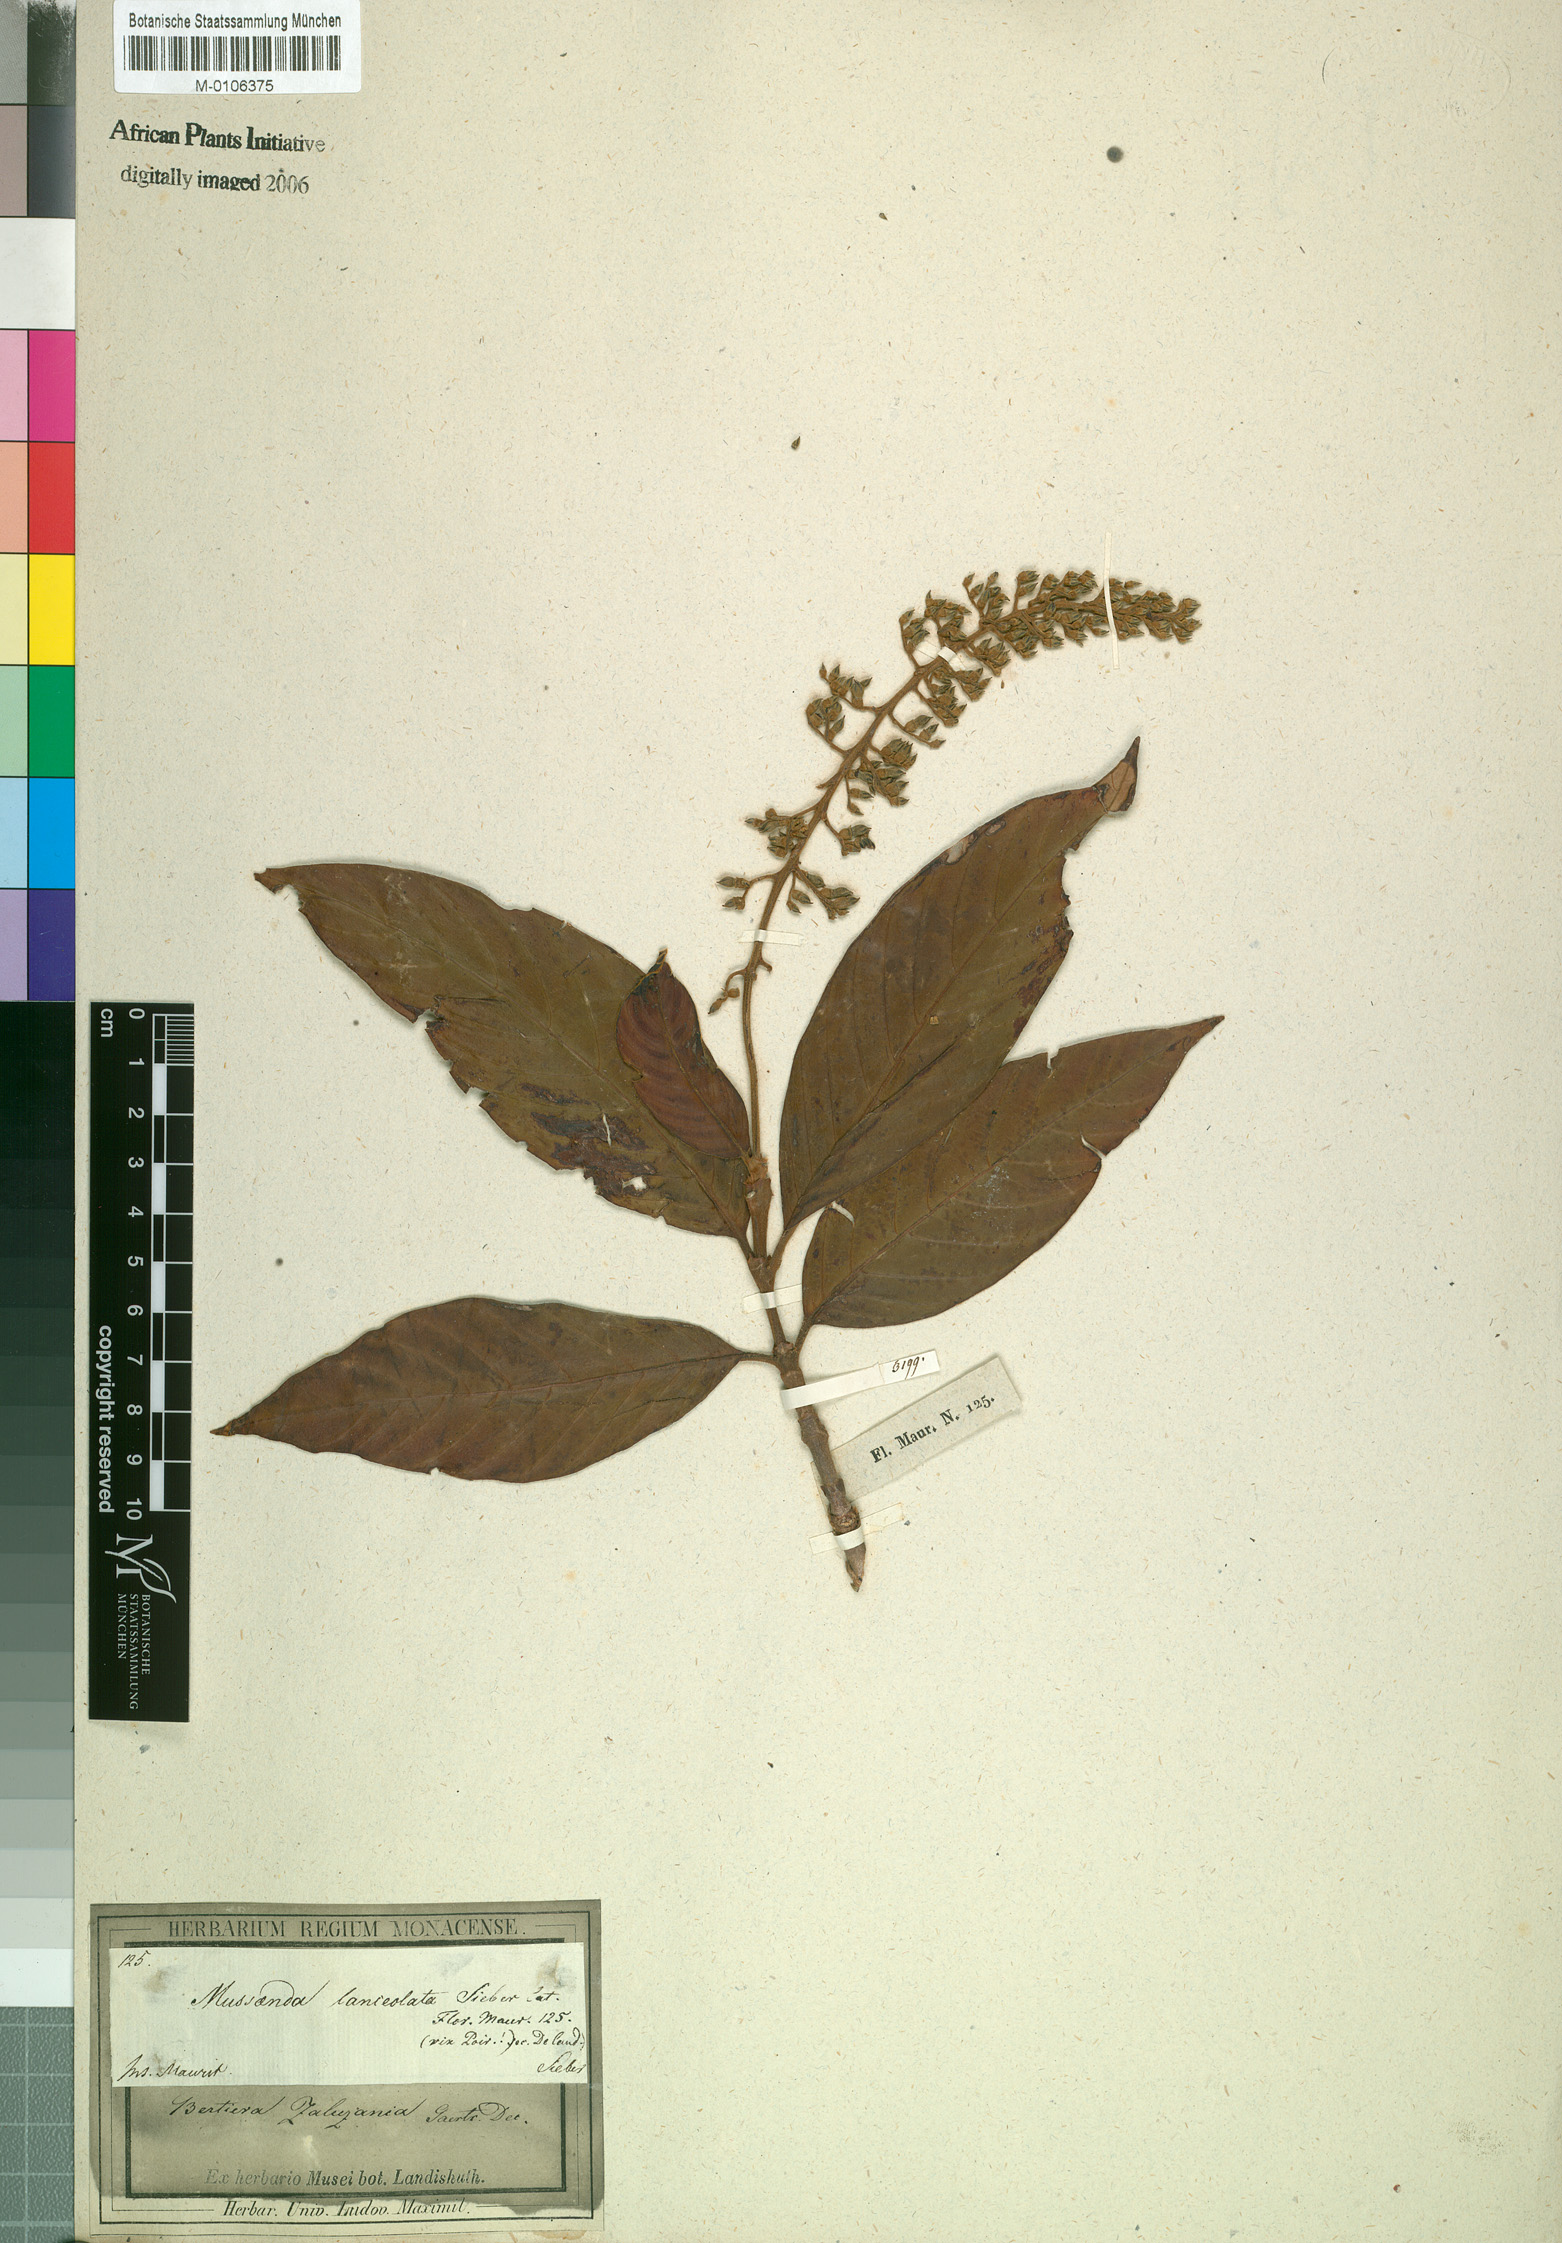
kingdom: Plantae
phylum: Tracheophyta
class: Magnoliopsida
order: Gentianales
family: Rubiaceae
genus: Bertiera
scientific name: Bertiera zaluzania
